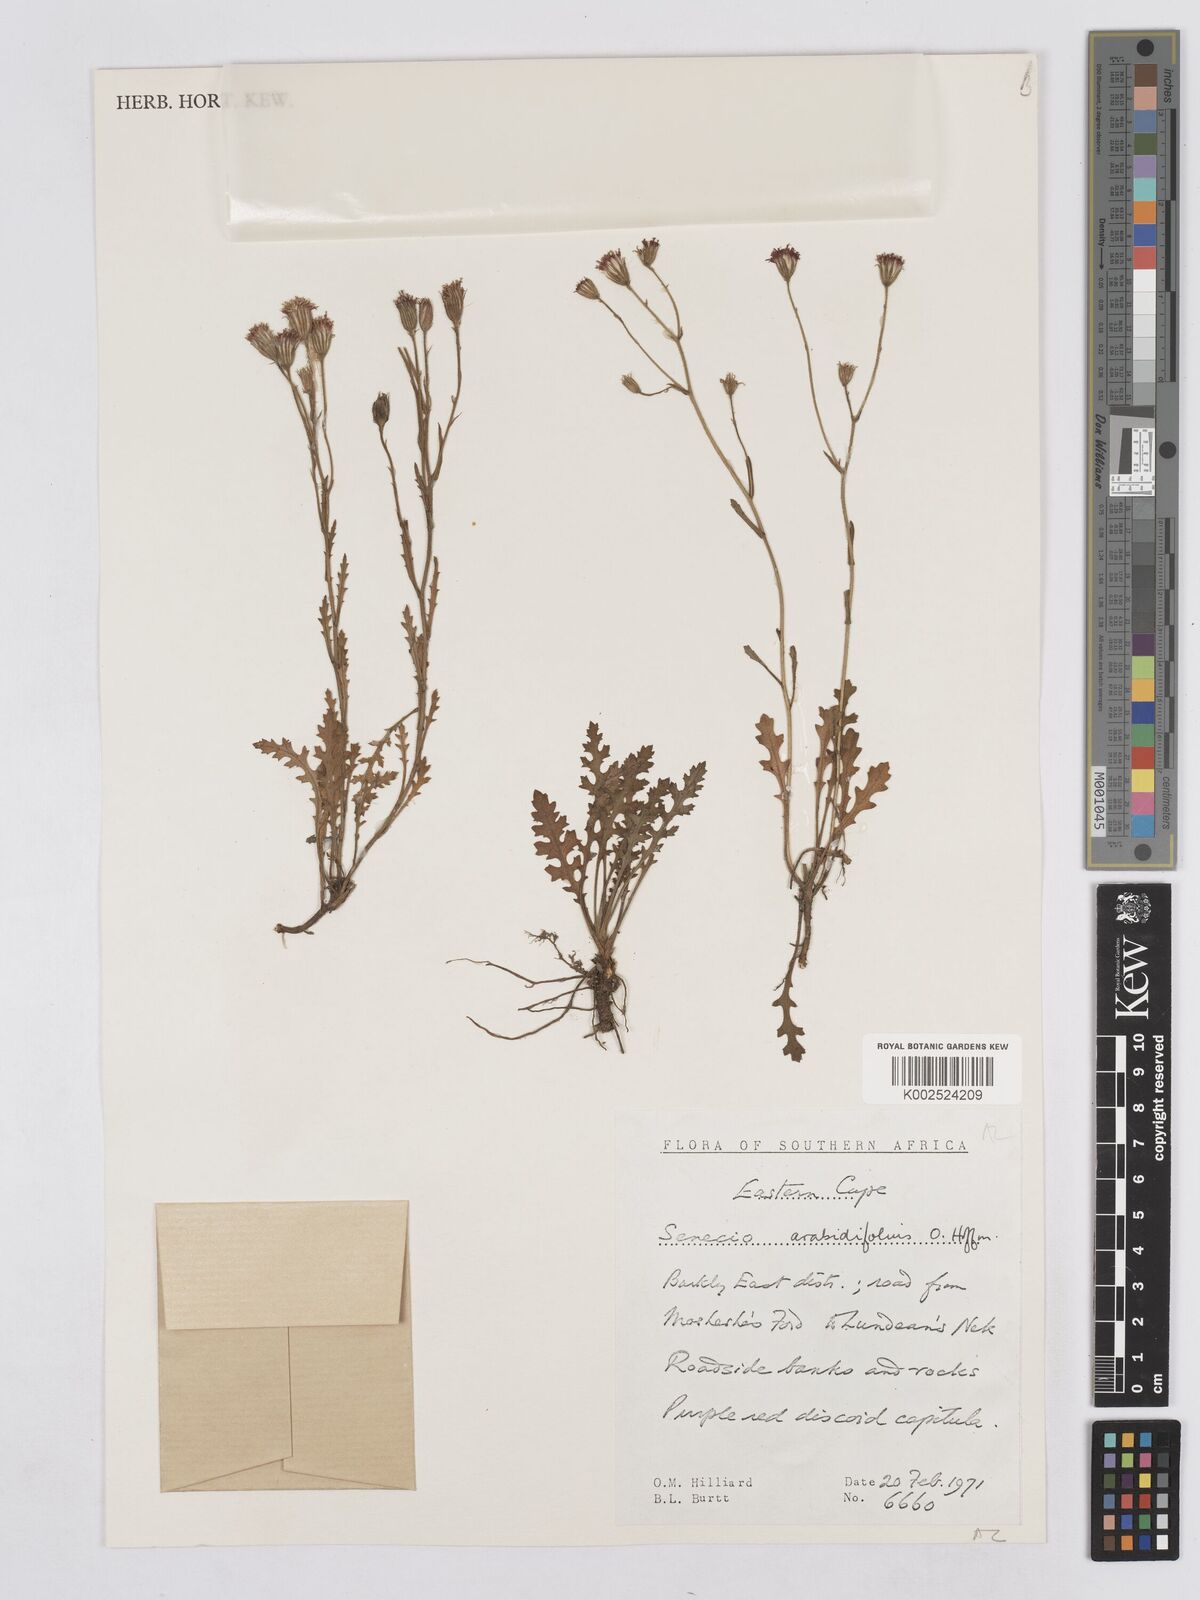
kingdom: Plantae
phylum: Tracheophyta
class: Magnoliopsida
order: Asterales
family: Asteraceae
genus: Senecio
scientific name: Senecio arabidifolius
